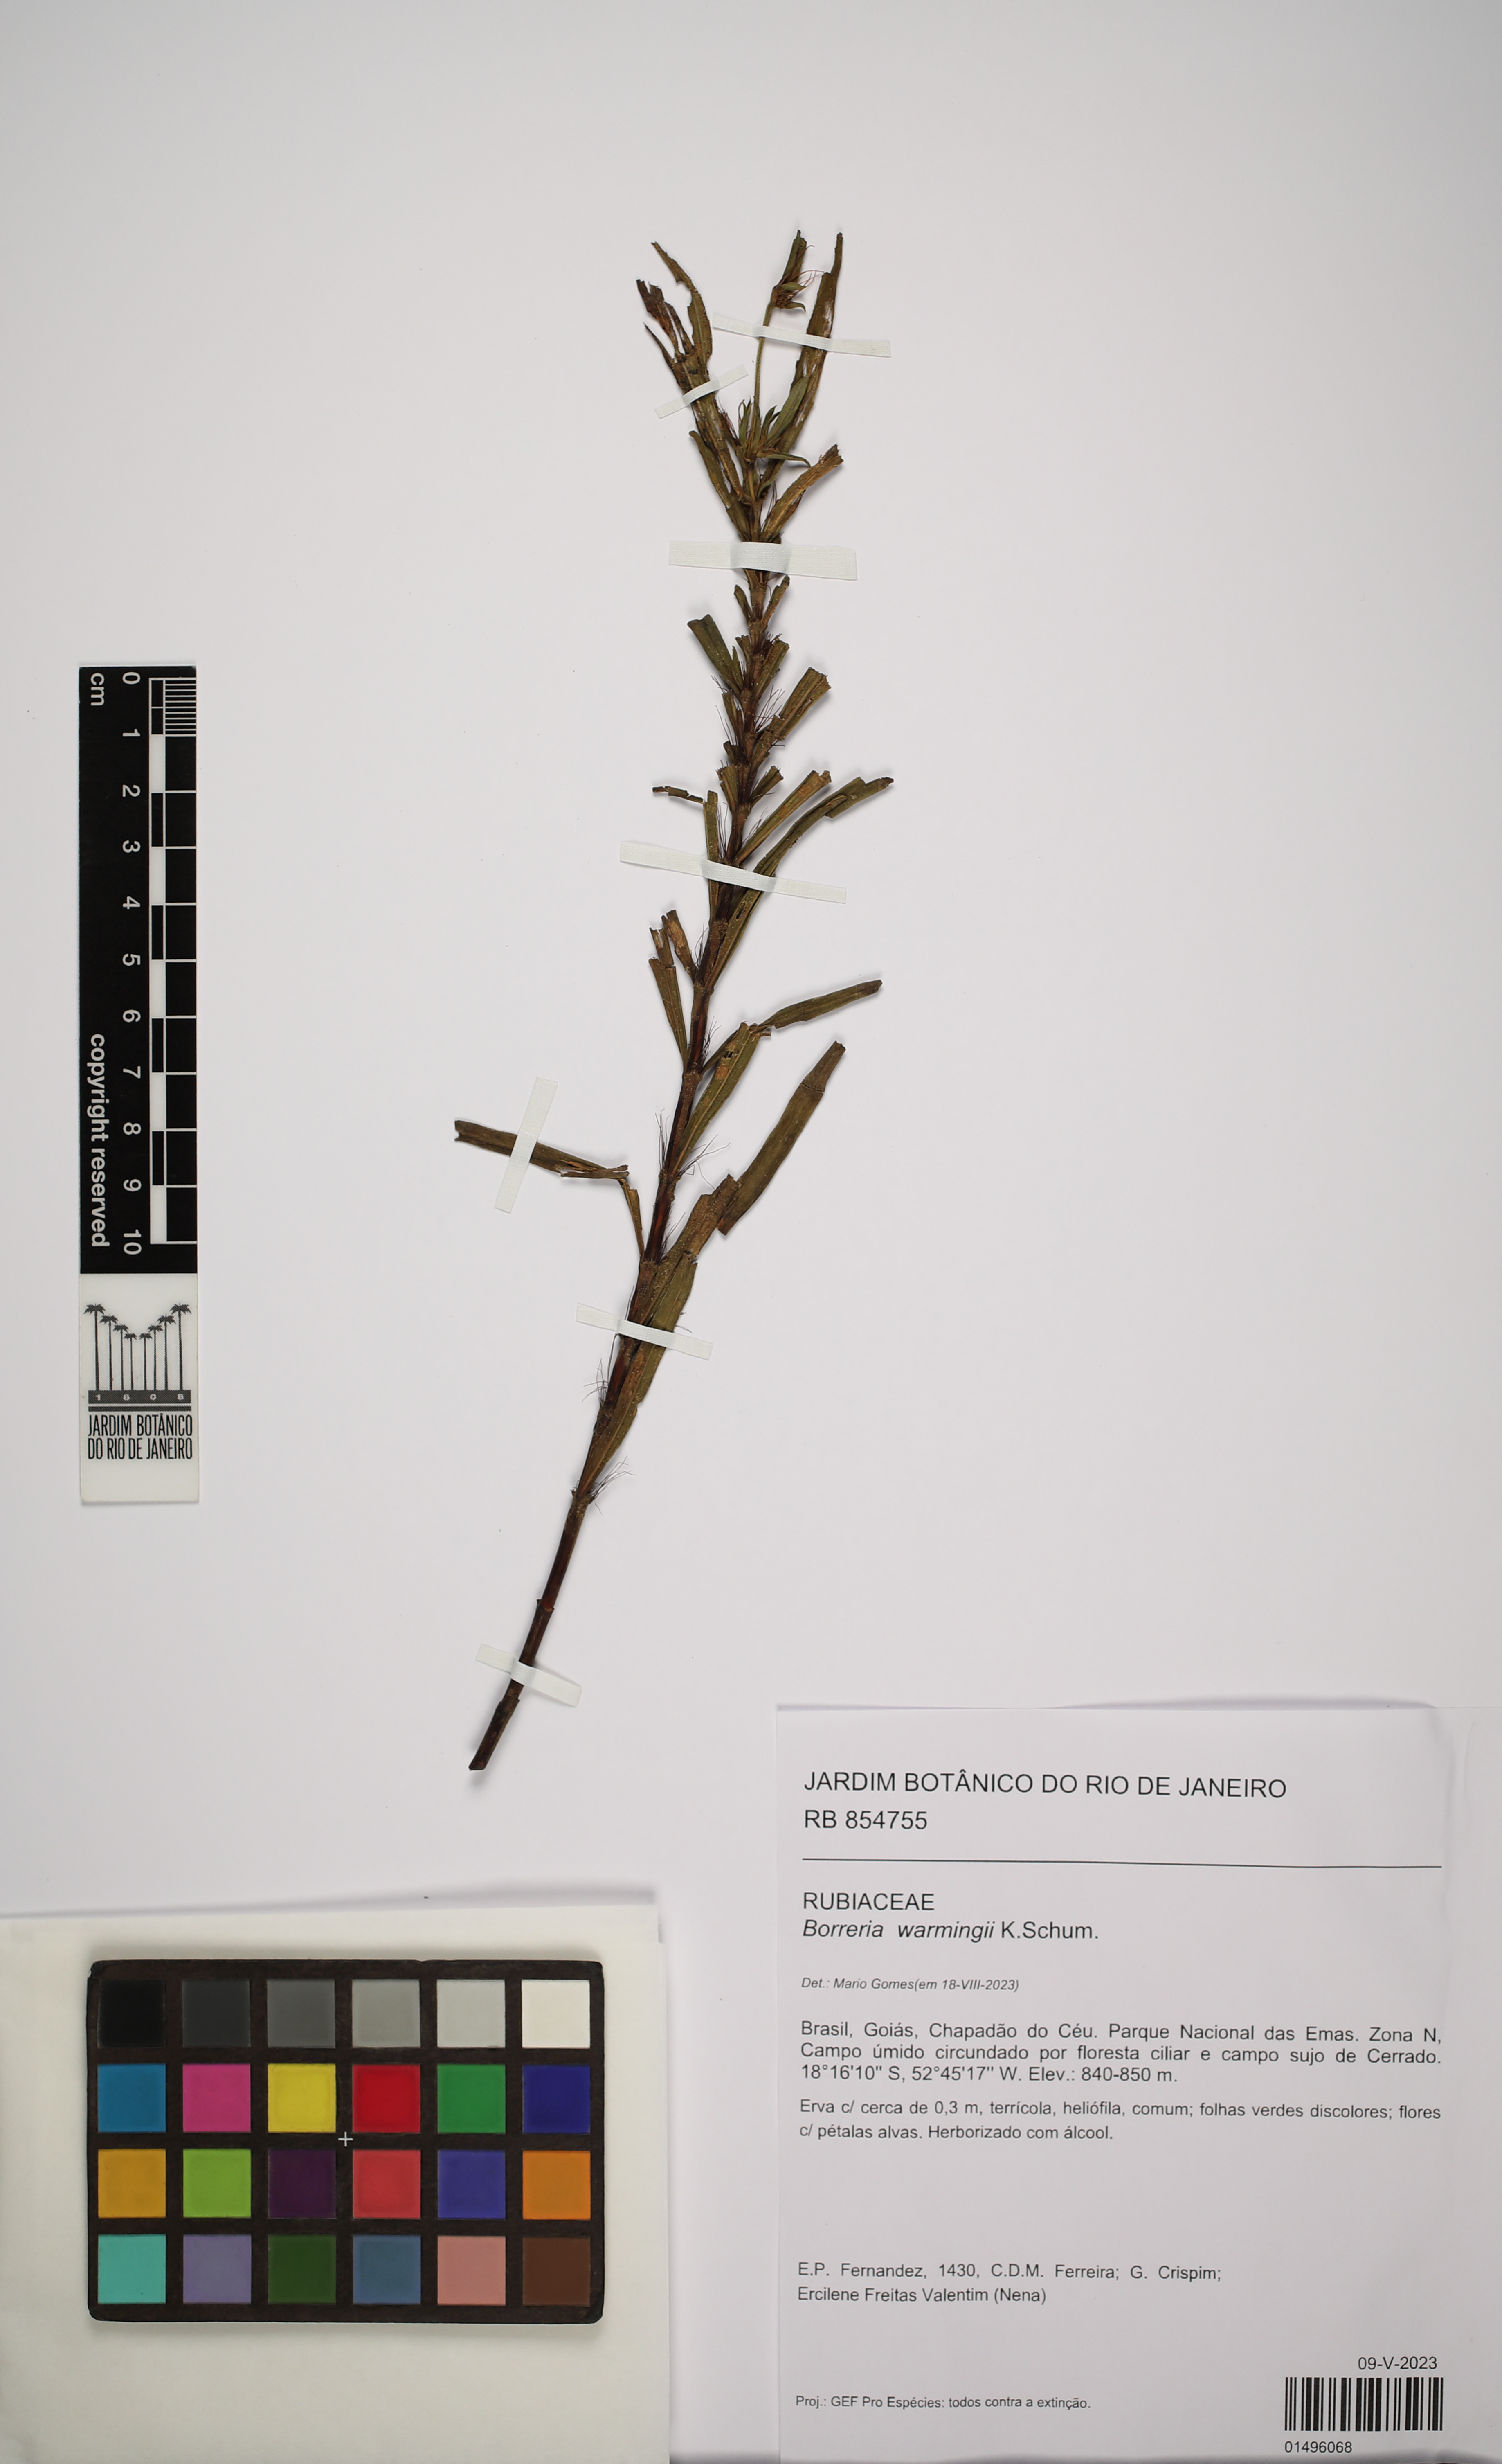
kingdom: Plantae
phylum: Tracheophyta
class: Magnoliopsida
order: Gentianales
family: Rubiaceae
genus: Spermacoce
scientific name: Spermacoce warmingii
